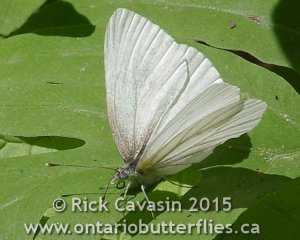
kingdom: Animalia
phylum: Arthropoda
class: Insecta
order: Lepidoptera
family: Pieridae
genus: Pieris
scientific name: Pieris oleracea
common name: Mustard White
